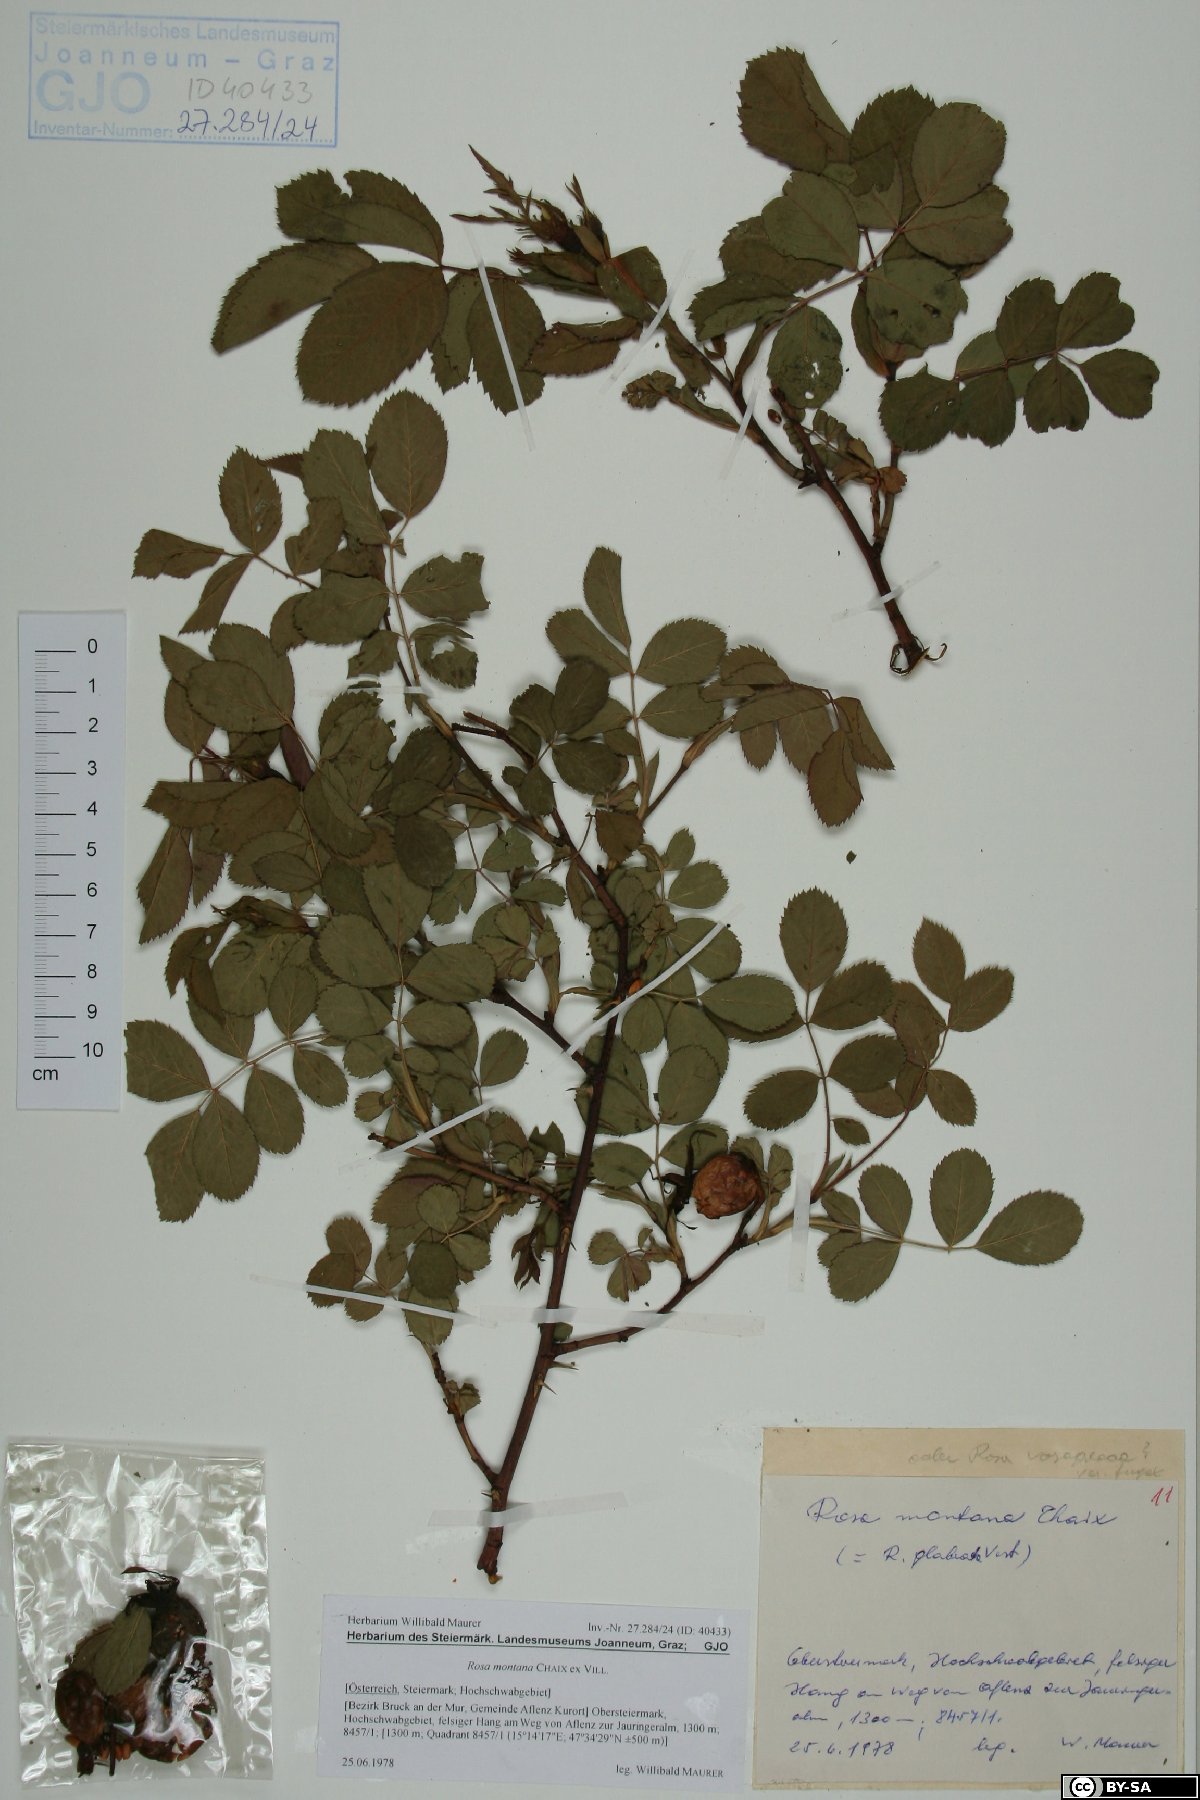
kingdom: Plantae
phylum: Tracheophyta
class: Magnoliopsida
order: Rosales
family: Rosaceae
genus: Rosa
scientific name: Rosa montana
